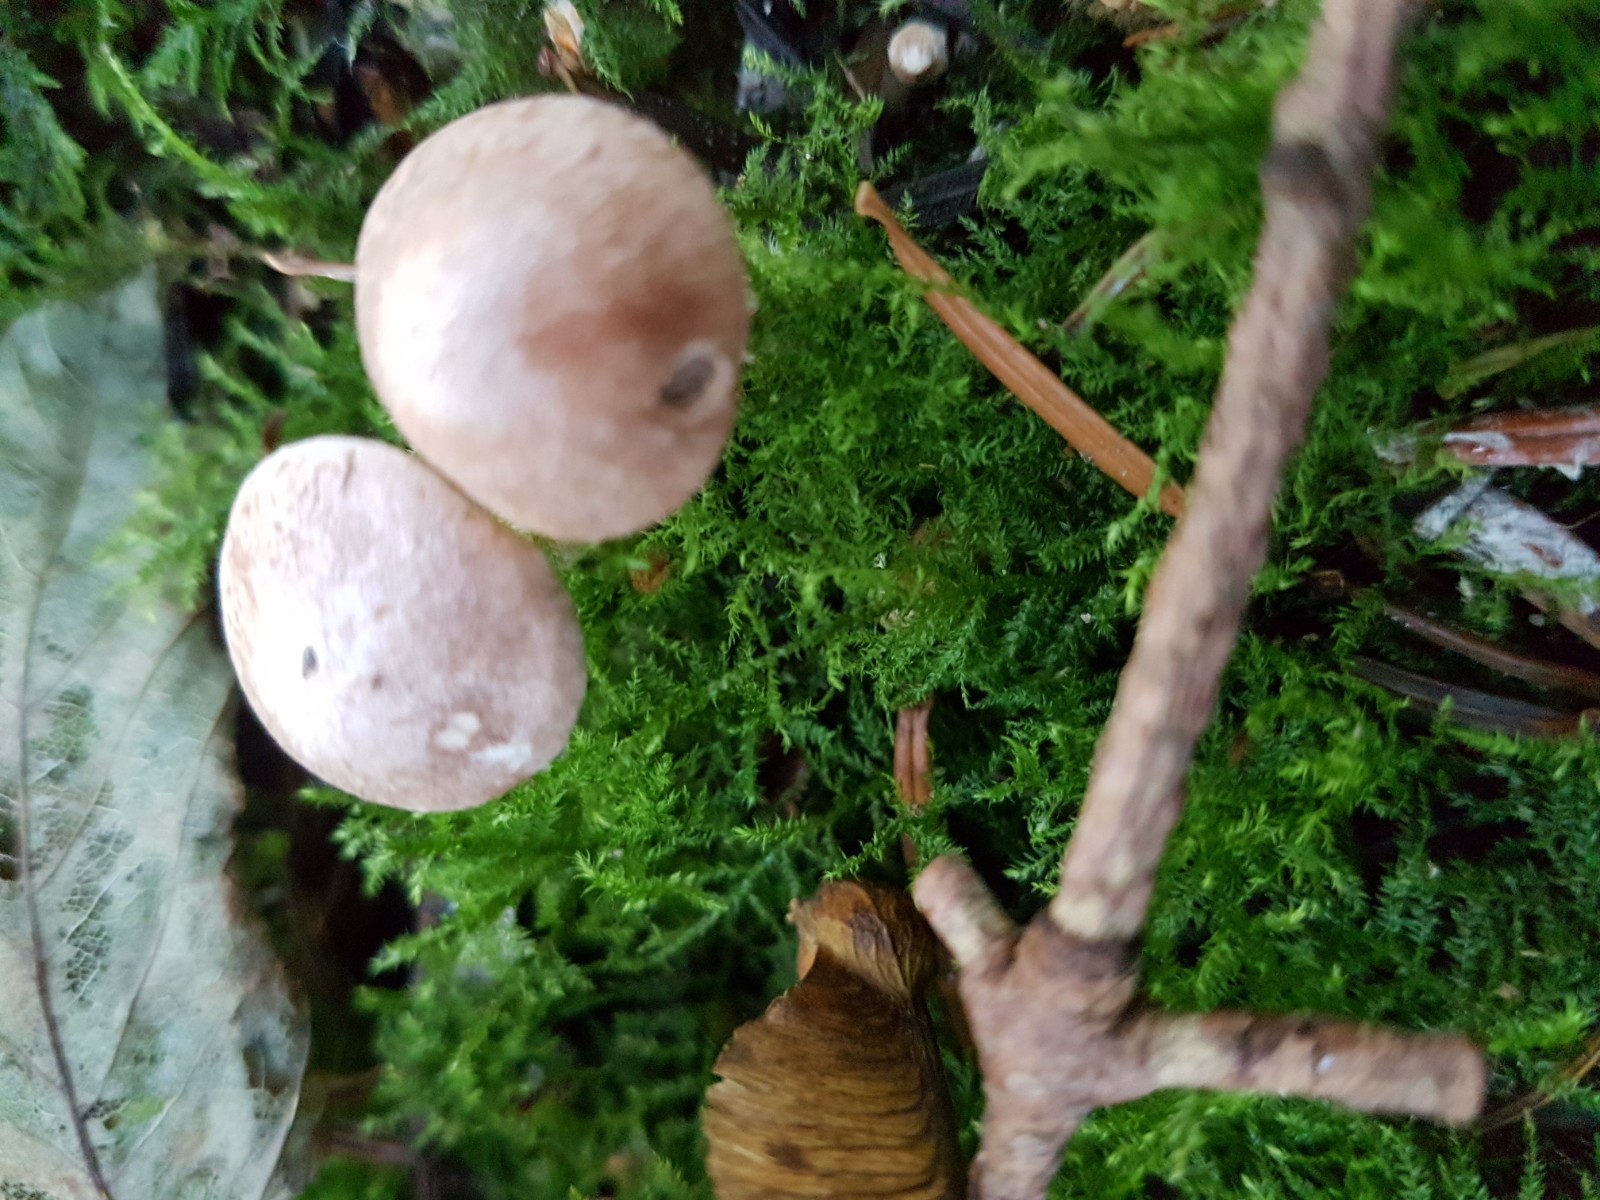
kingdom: Fungi
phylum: Basidiomycota
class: Agaricomycetes
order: Agaricales
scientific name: Agaricales
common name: champignonordenen
